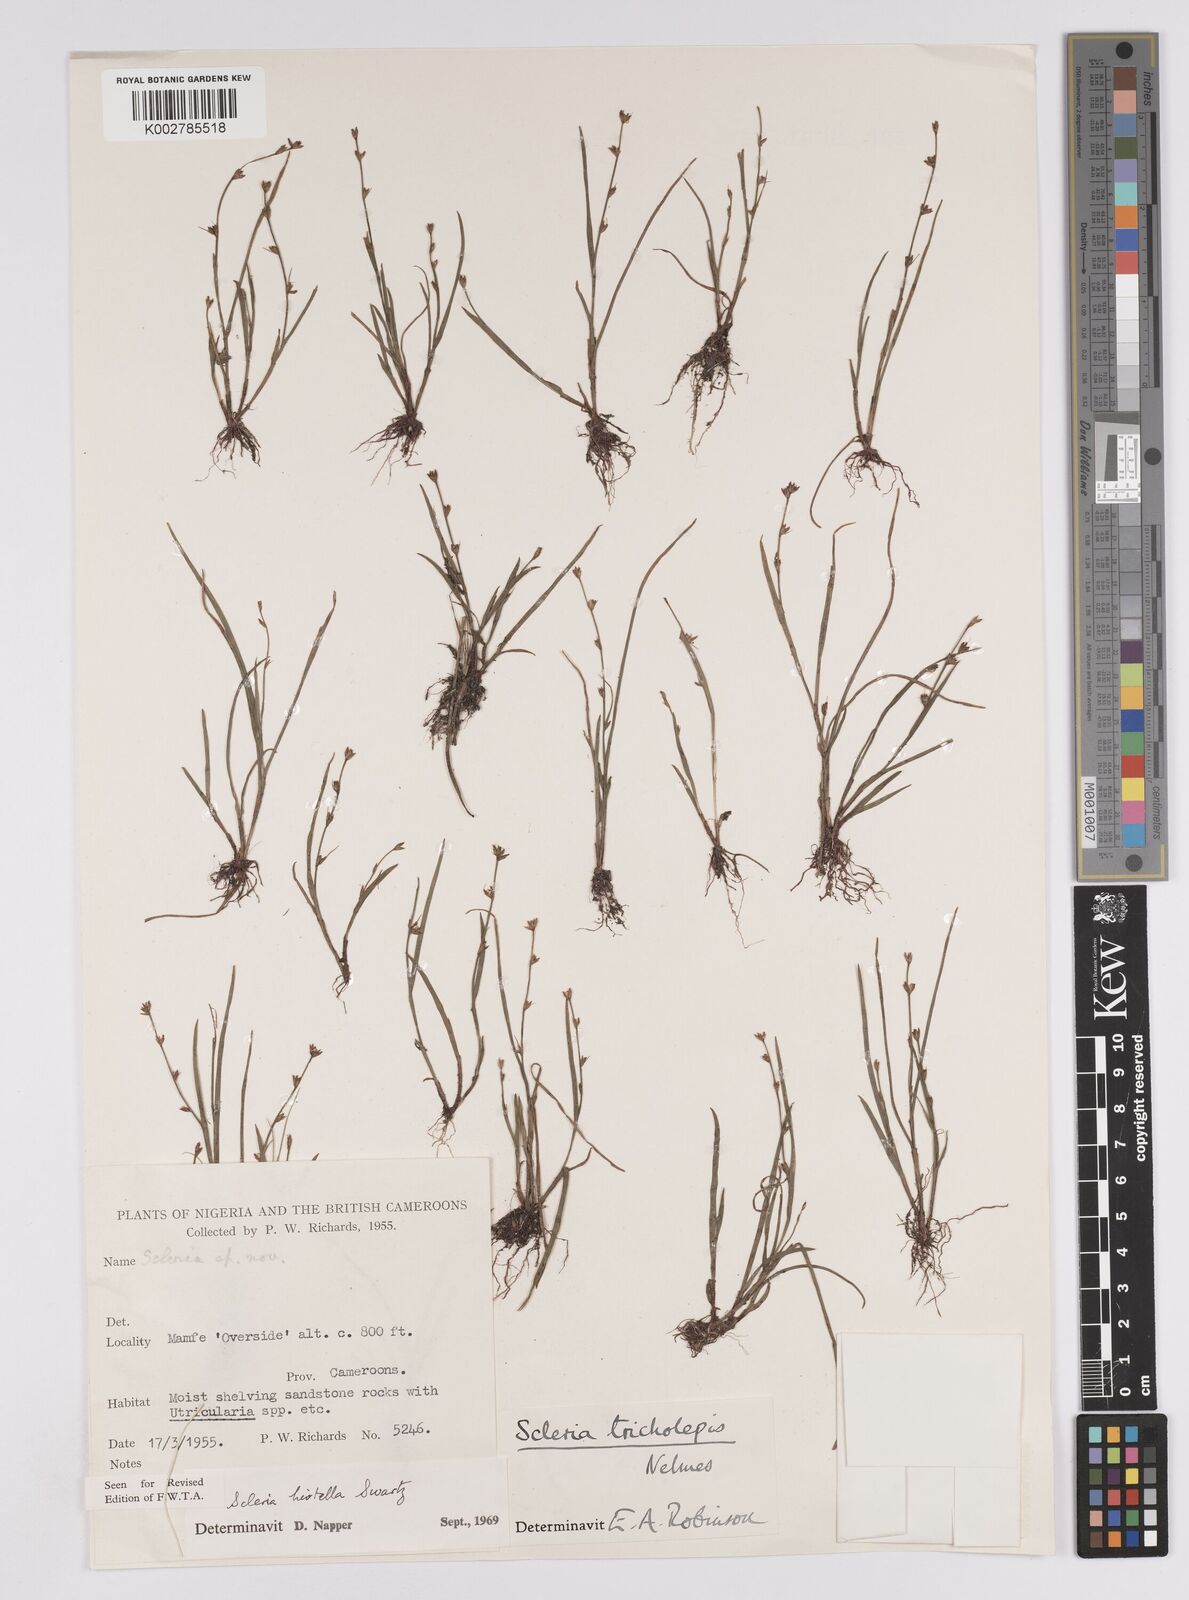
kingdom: Plantae
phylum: Tracheophyta
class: Liliopsida
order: Poales
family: Cyperaceae
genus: Scleria
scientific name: Scleria tricholepis
